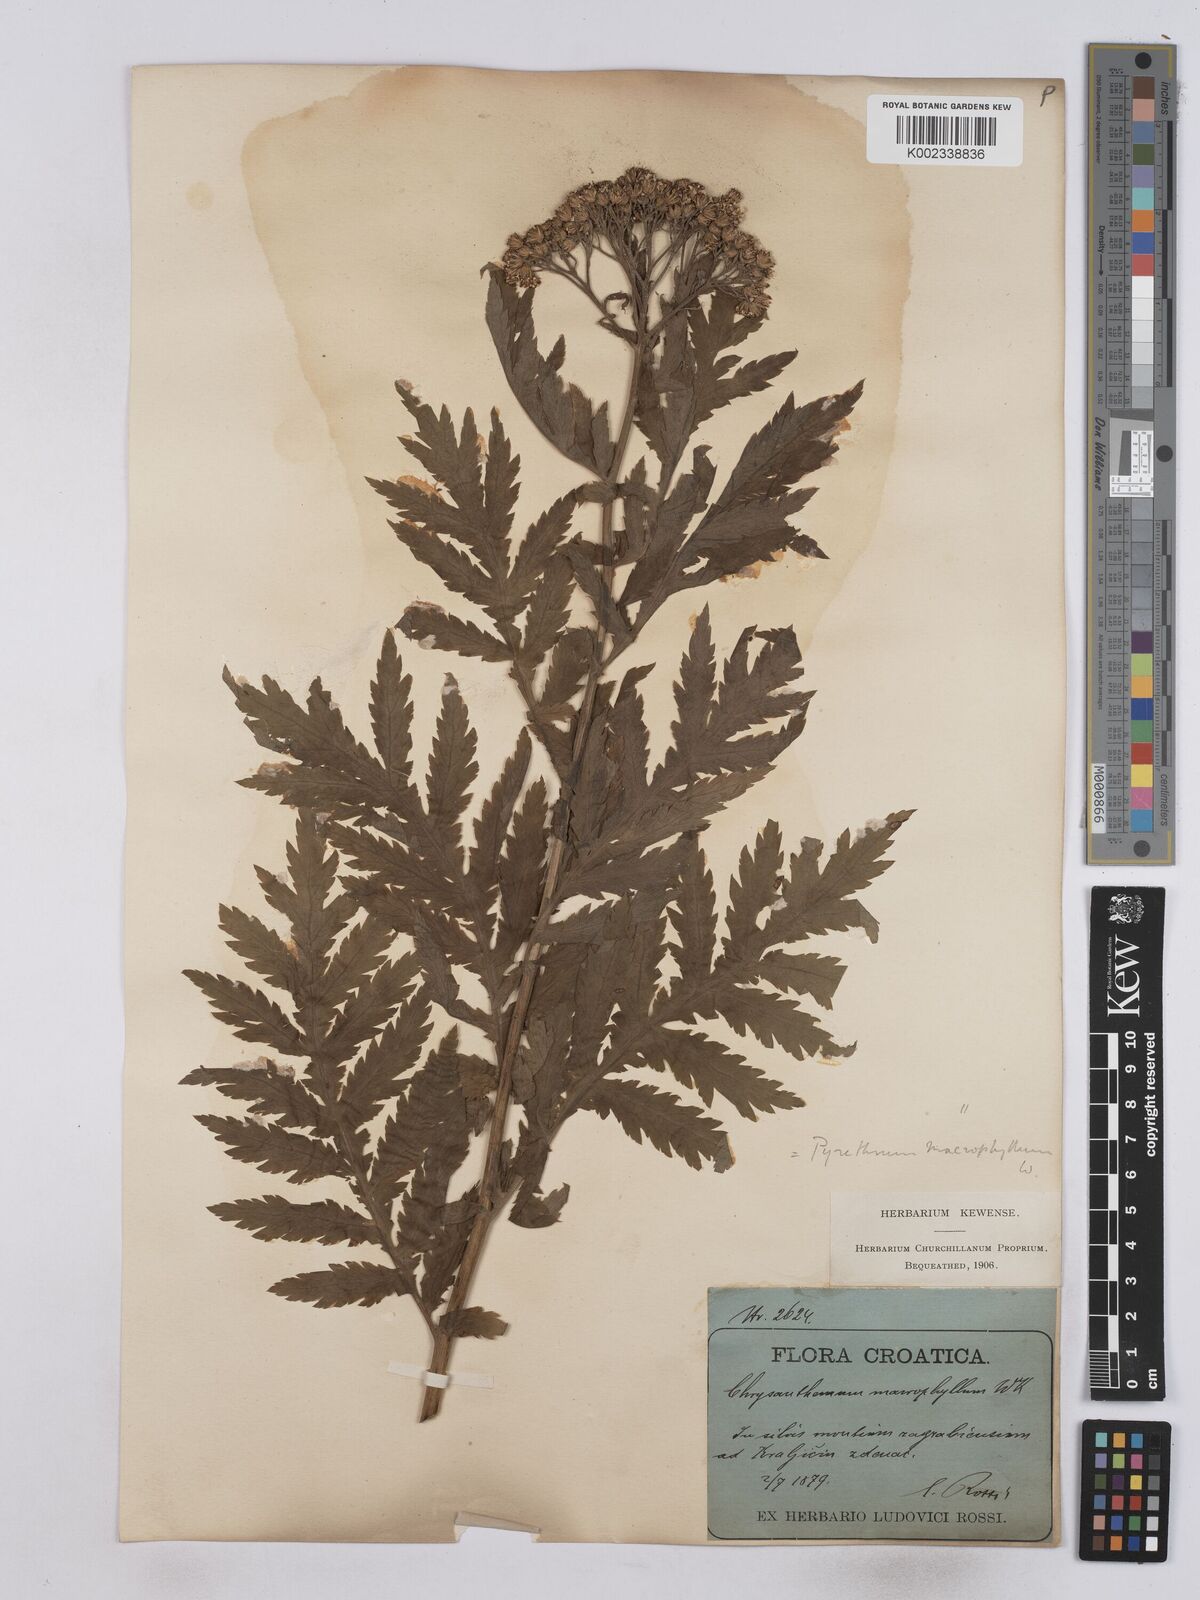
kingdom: Plantae
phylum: Tracheophyta
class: Magnoliopsida
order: Asterales
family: Asteraceae
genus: Tanacetum
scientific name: Tanacetum macrophyllum
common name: Rayed tansy
